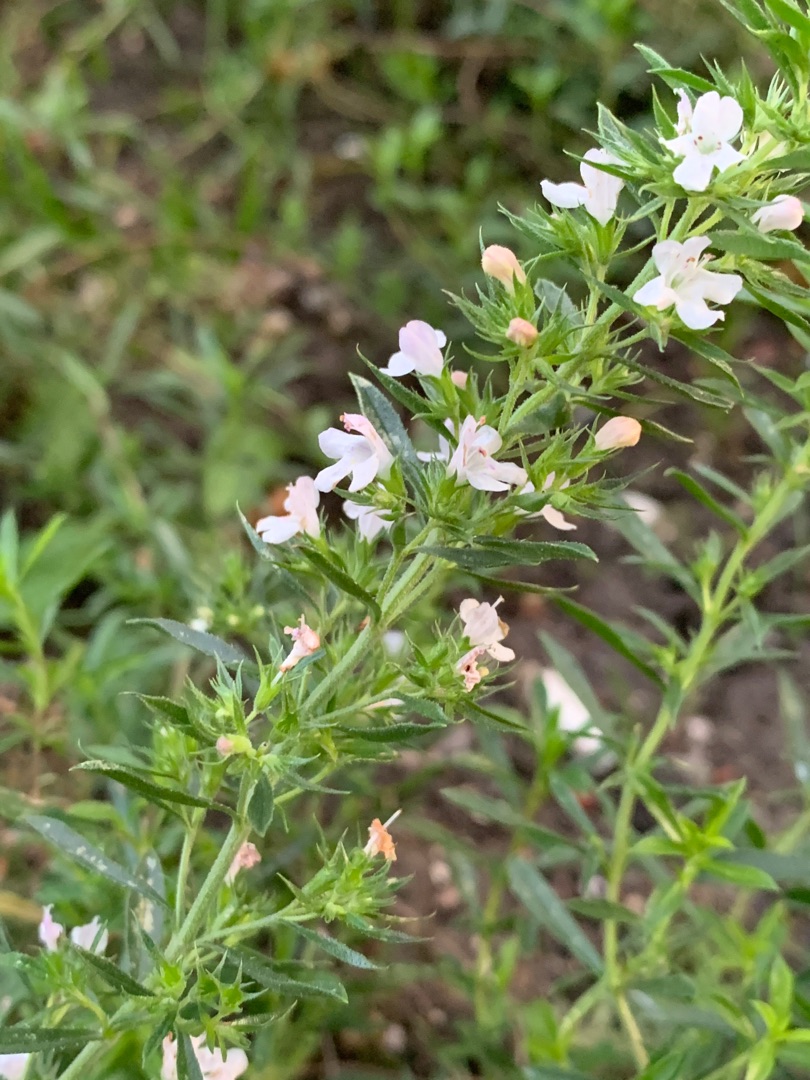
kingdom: Plantae
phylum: Tracheophyta
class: Magnoliopsida
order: Lamiales
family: Lamiaceae
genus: Satureja
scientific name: Satureja montana
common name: Vintersar
